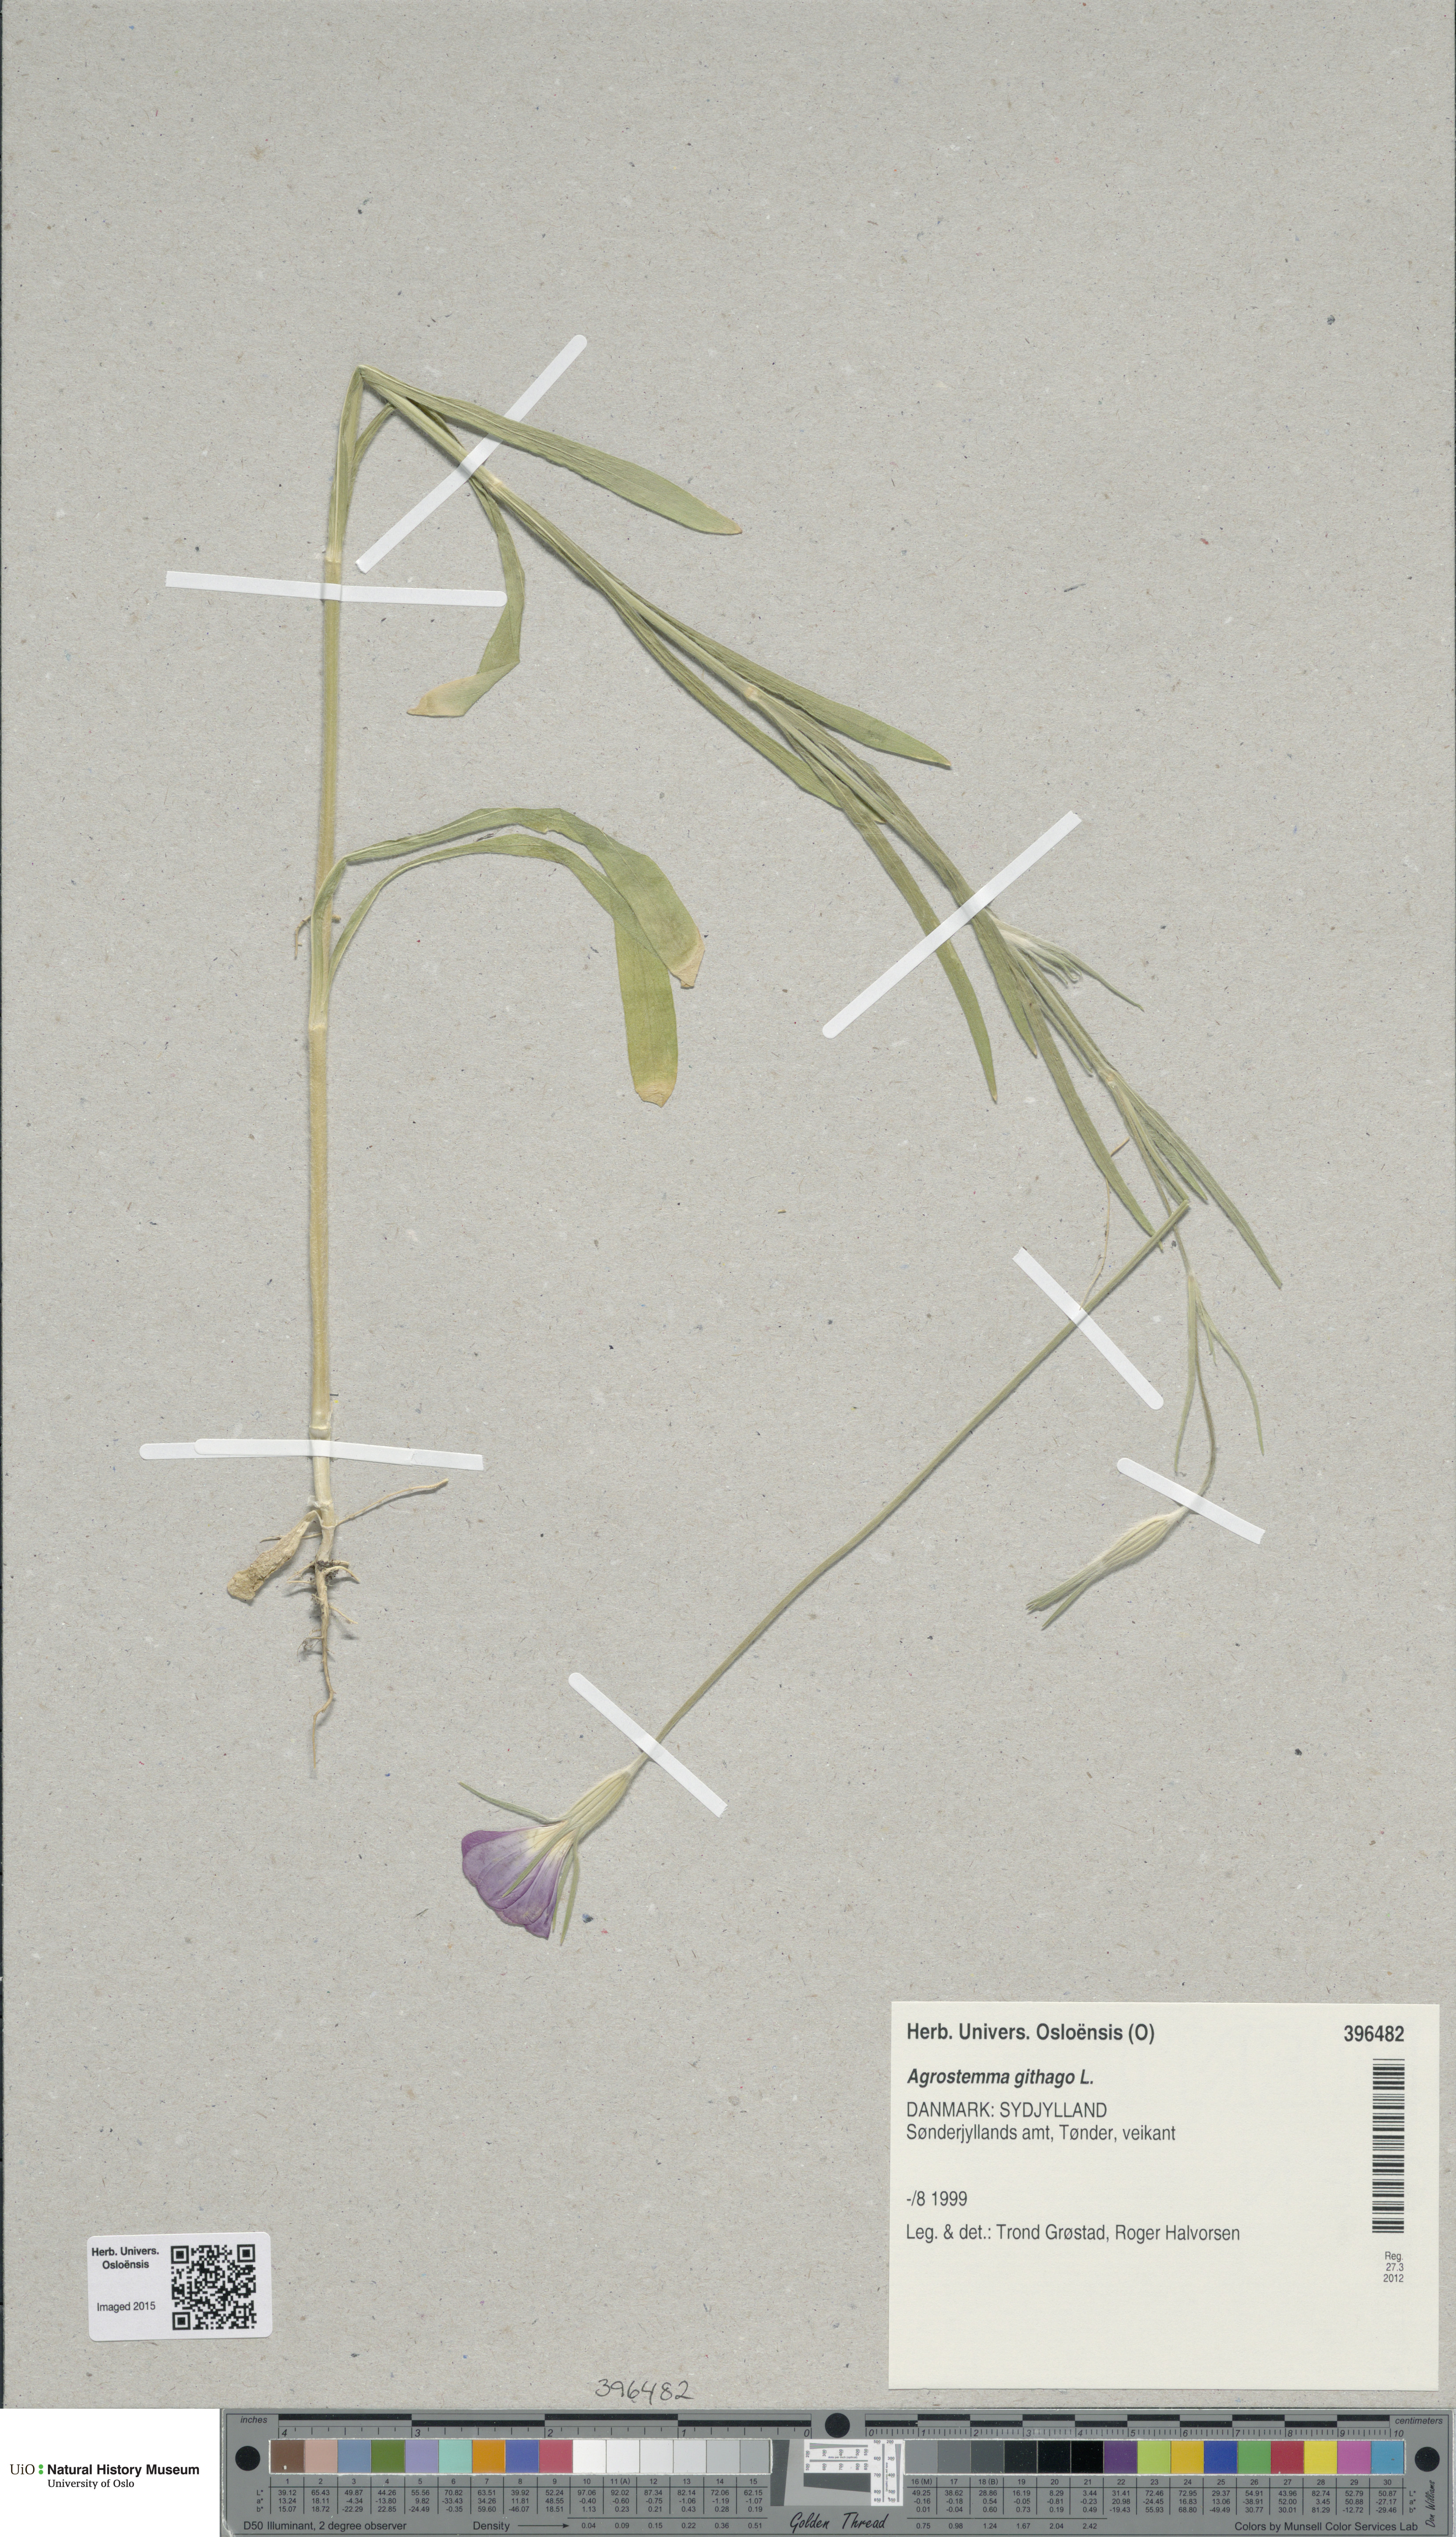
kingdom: Plantae
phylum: Tracheophyta
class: Magnoliopsida
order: Caryophyllales
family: Caryophyllaceae
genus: Agrostemma
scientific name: Agrostemma githago
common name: Common corncockle
